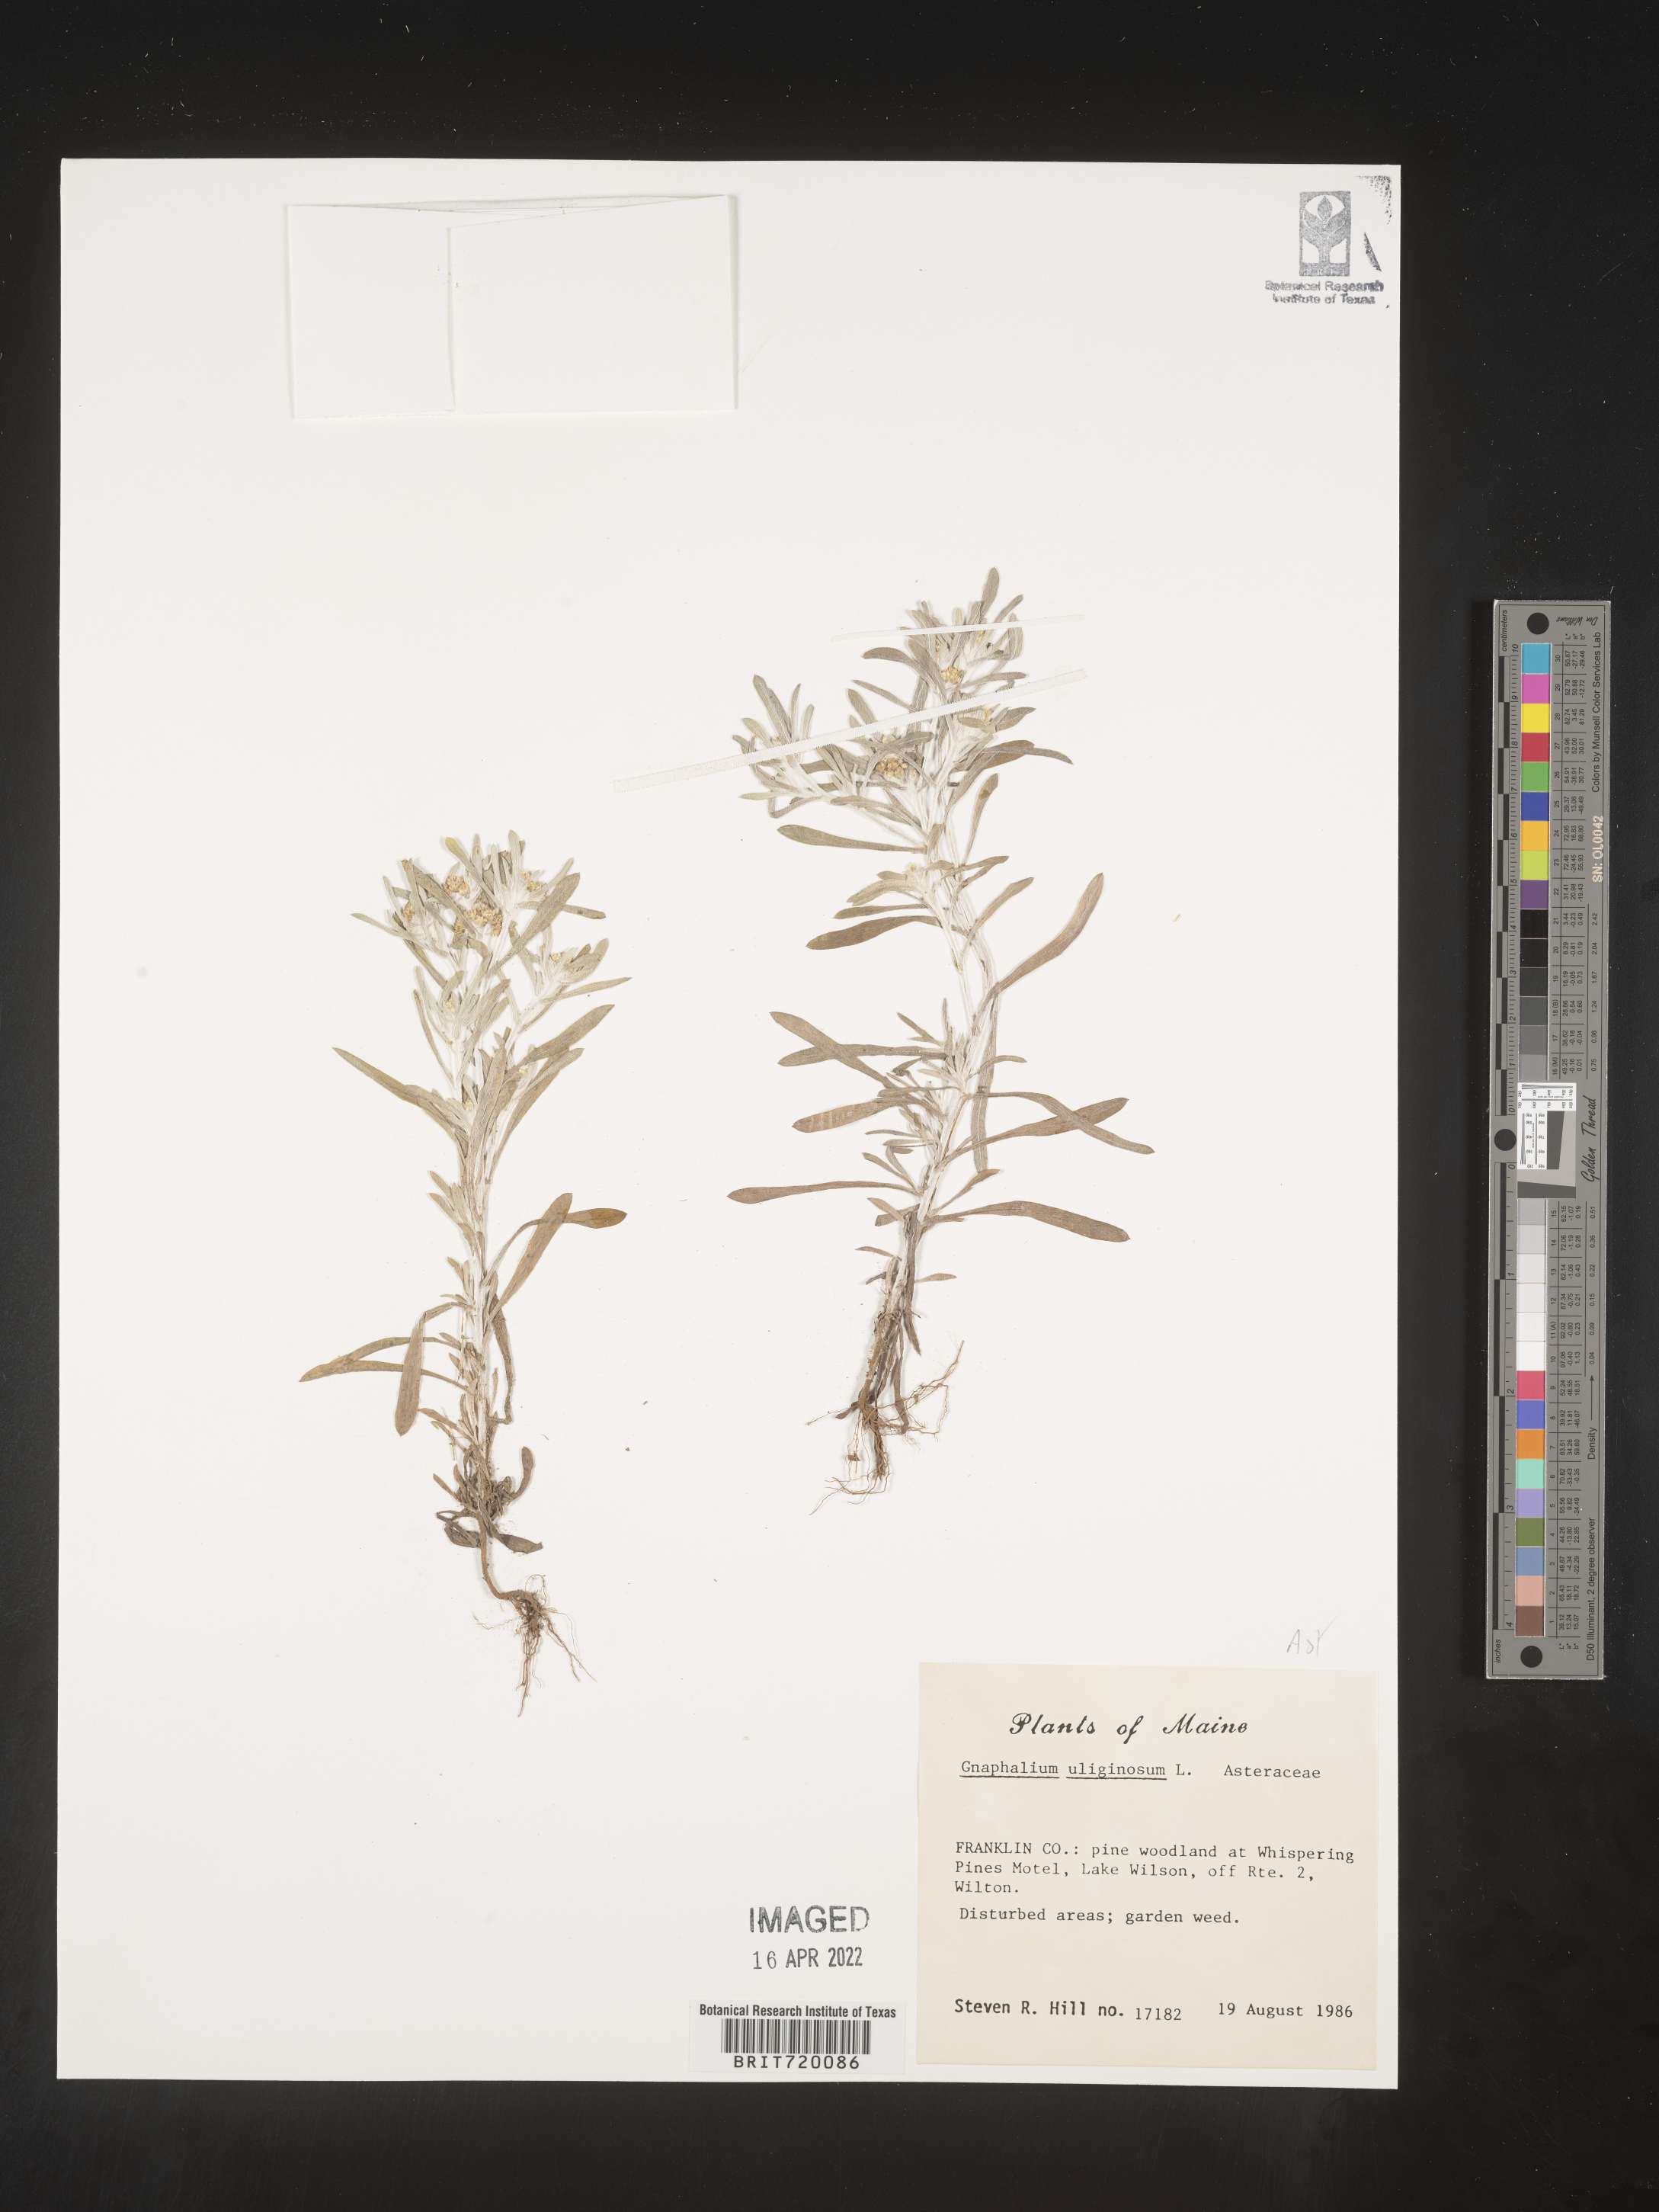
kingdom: Plantae
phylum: Tracheophyta
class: Magnoliopsida
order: Asterales
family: Asteraceae
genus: Gnaphalium
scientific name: Gnaphalium uliginosum
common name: Marsh cudweed
